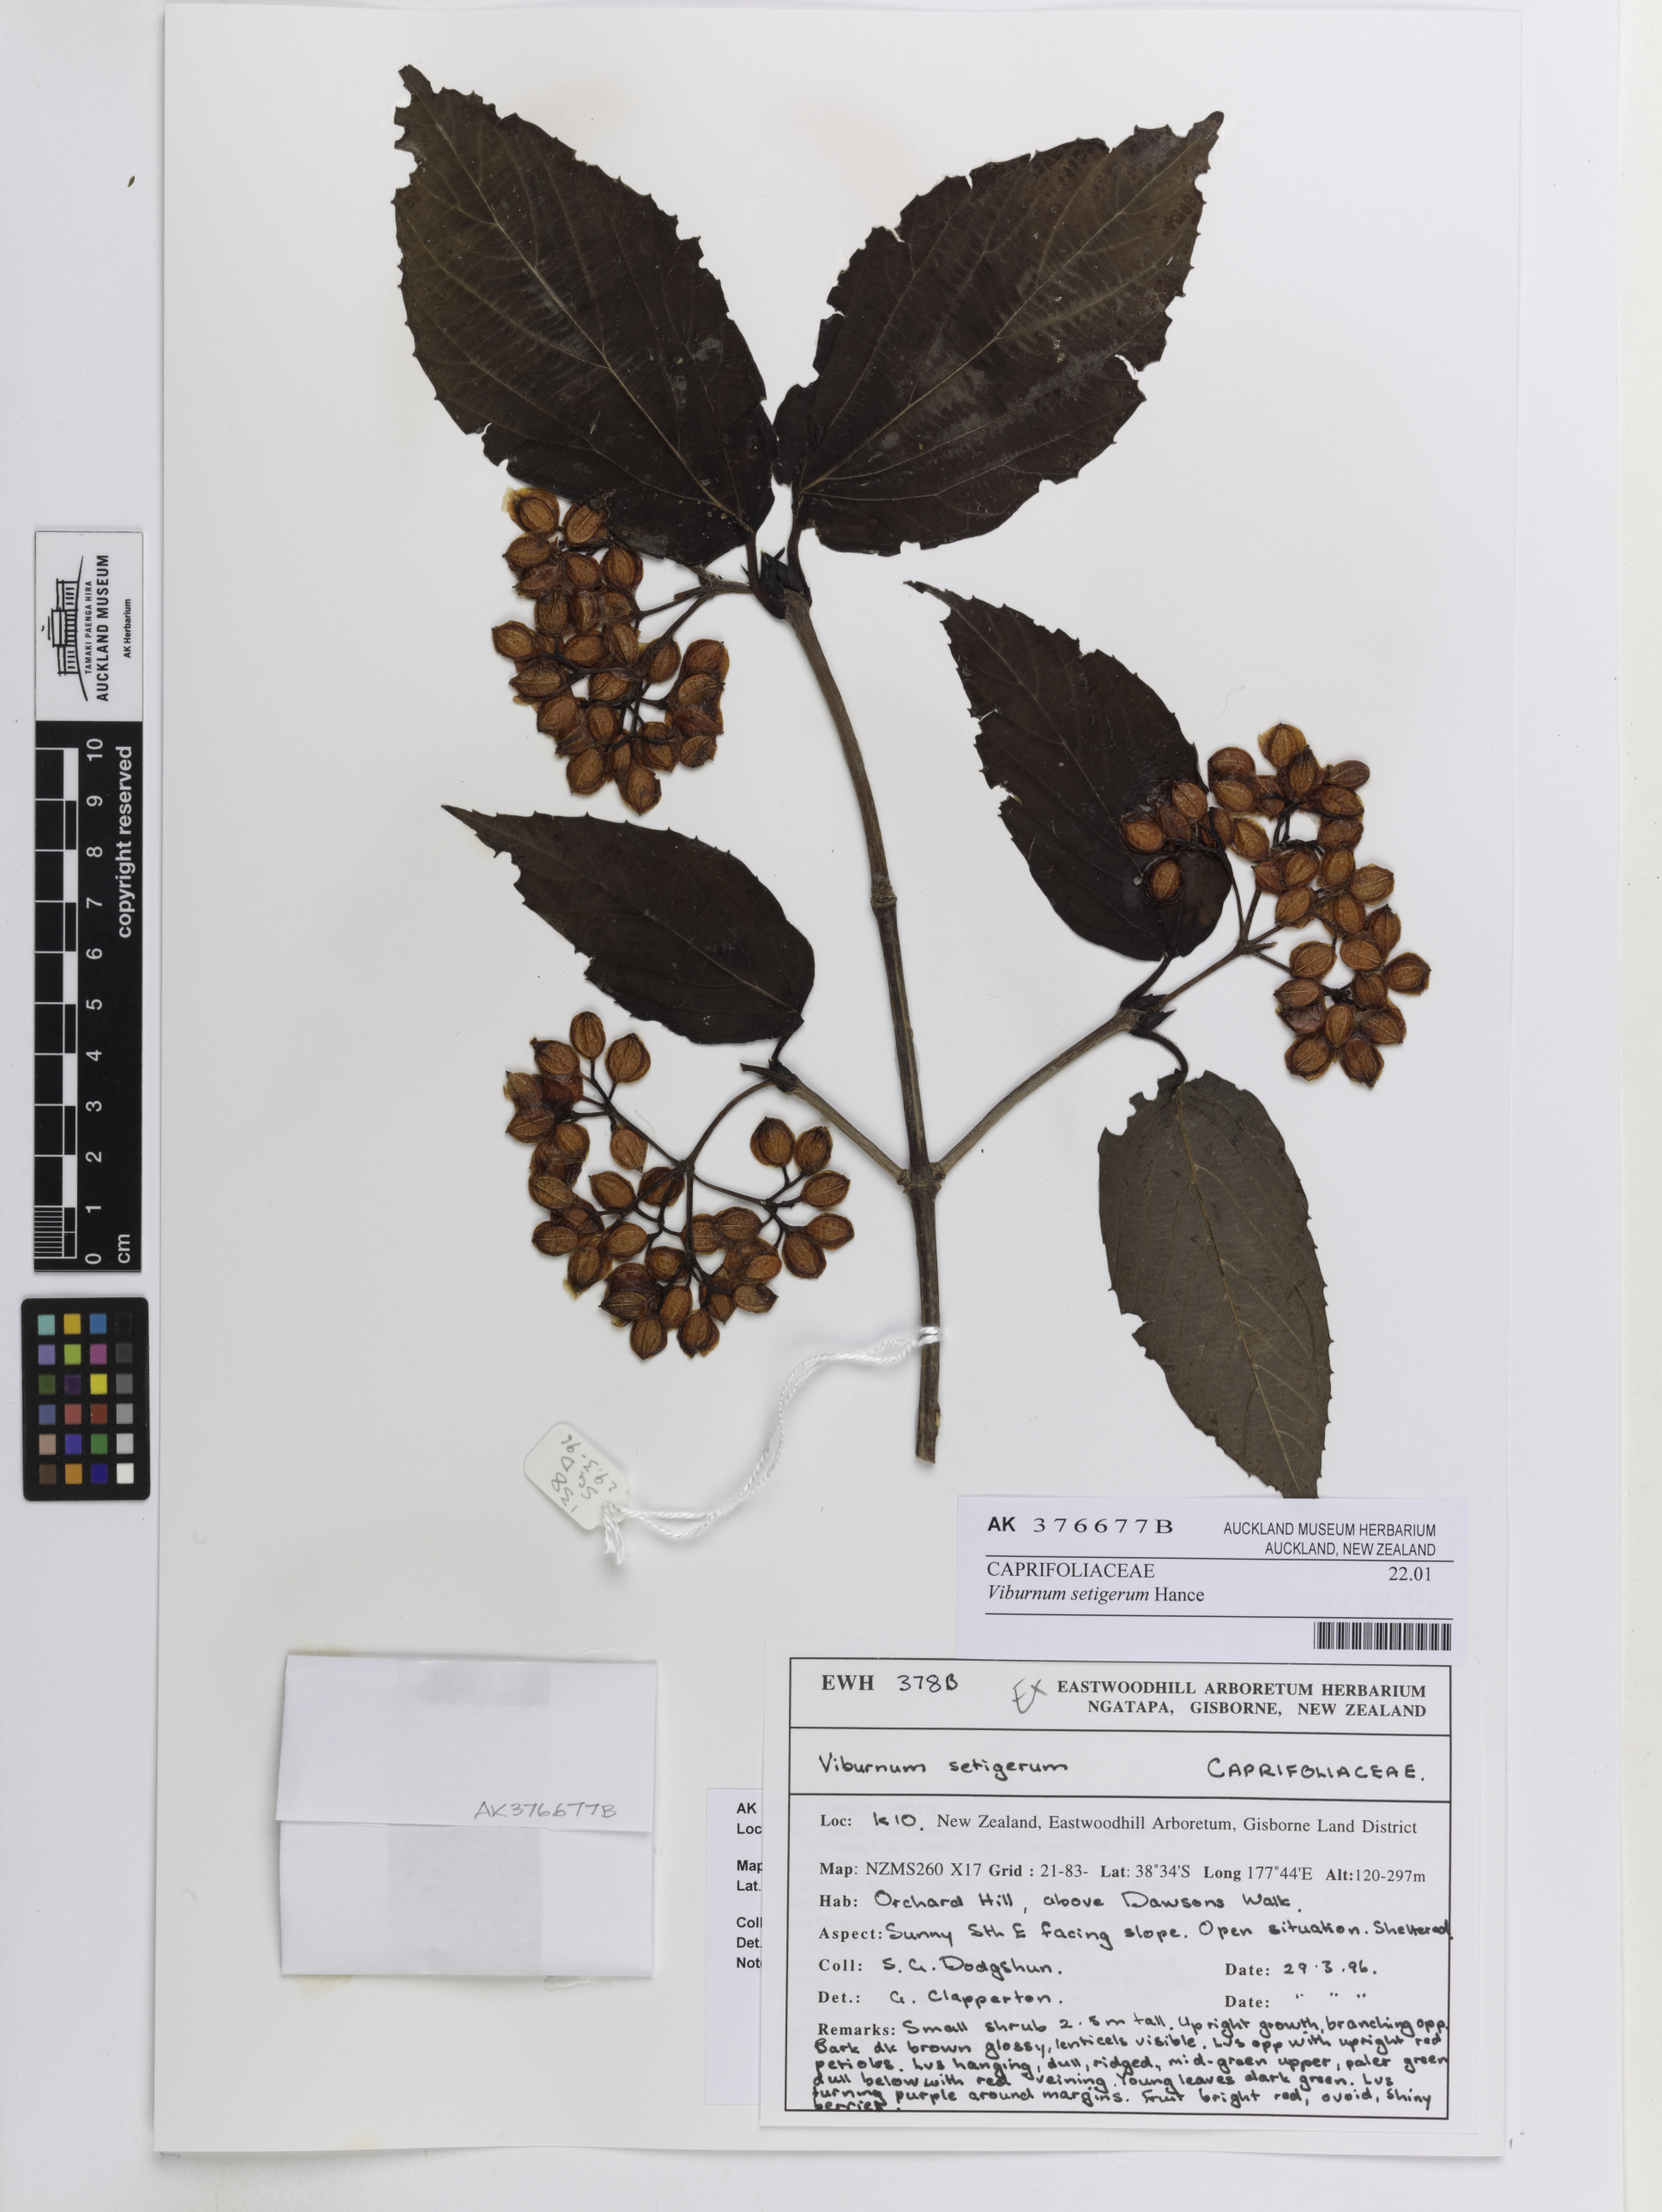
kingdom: Plantae
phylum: Tracheophyta
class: Magnoliopsida
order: Dipsacales
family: Viburnaceae
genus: Viburnum
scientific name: Viburnum setigerum
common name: Tea viburnum
